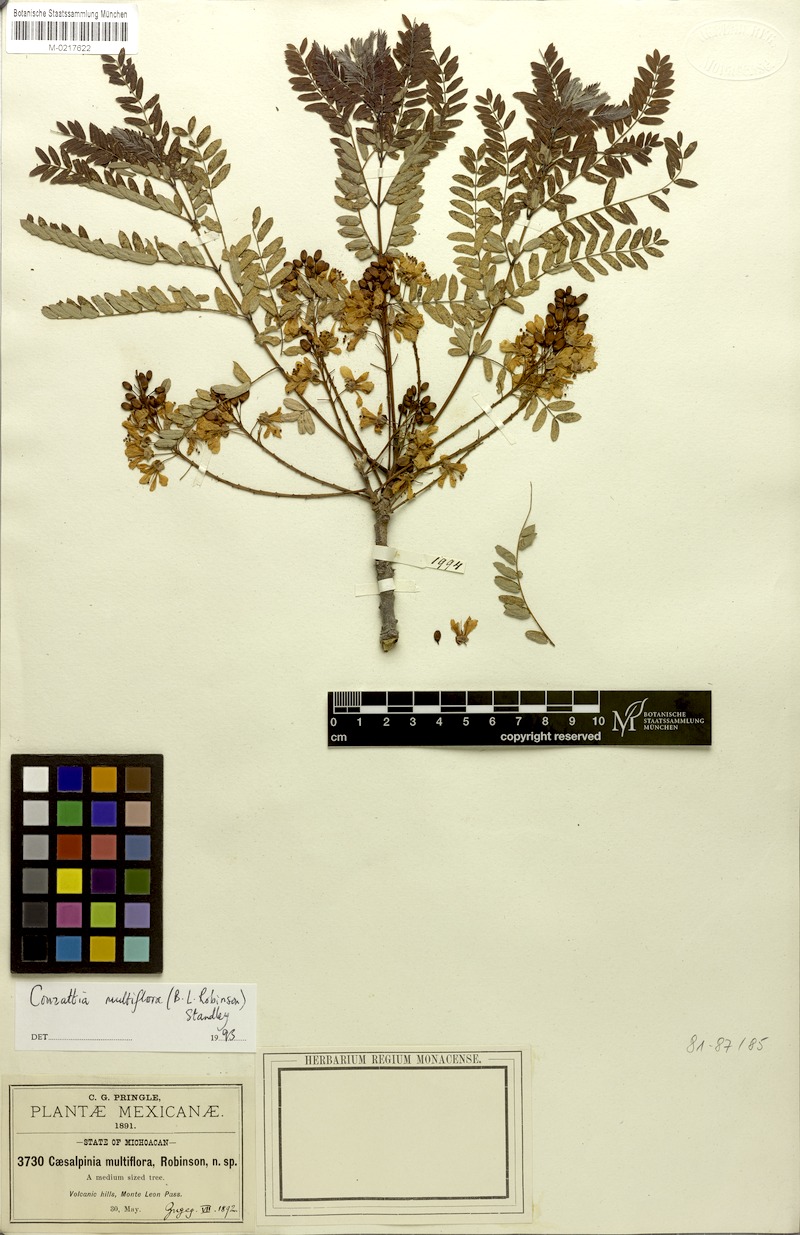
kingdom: Plantae
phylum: Tracheophyta
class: Magnoliopsida
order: Fabales
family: Fabaceae
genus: Conzattia
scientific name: Conzattia multiflora
